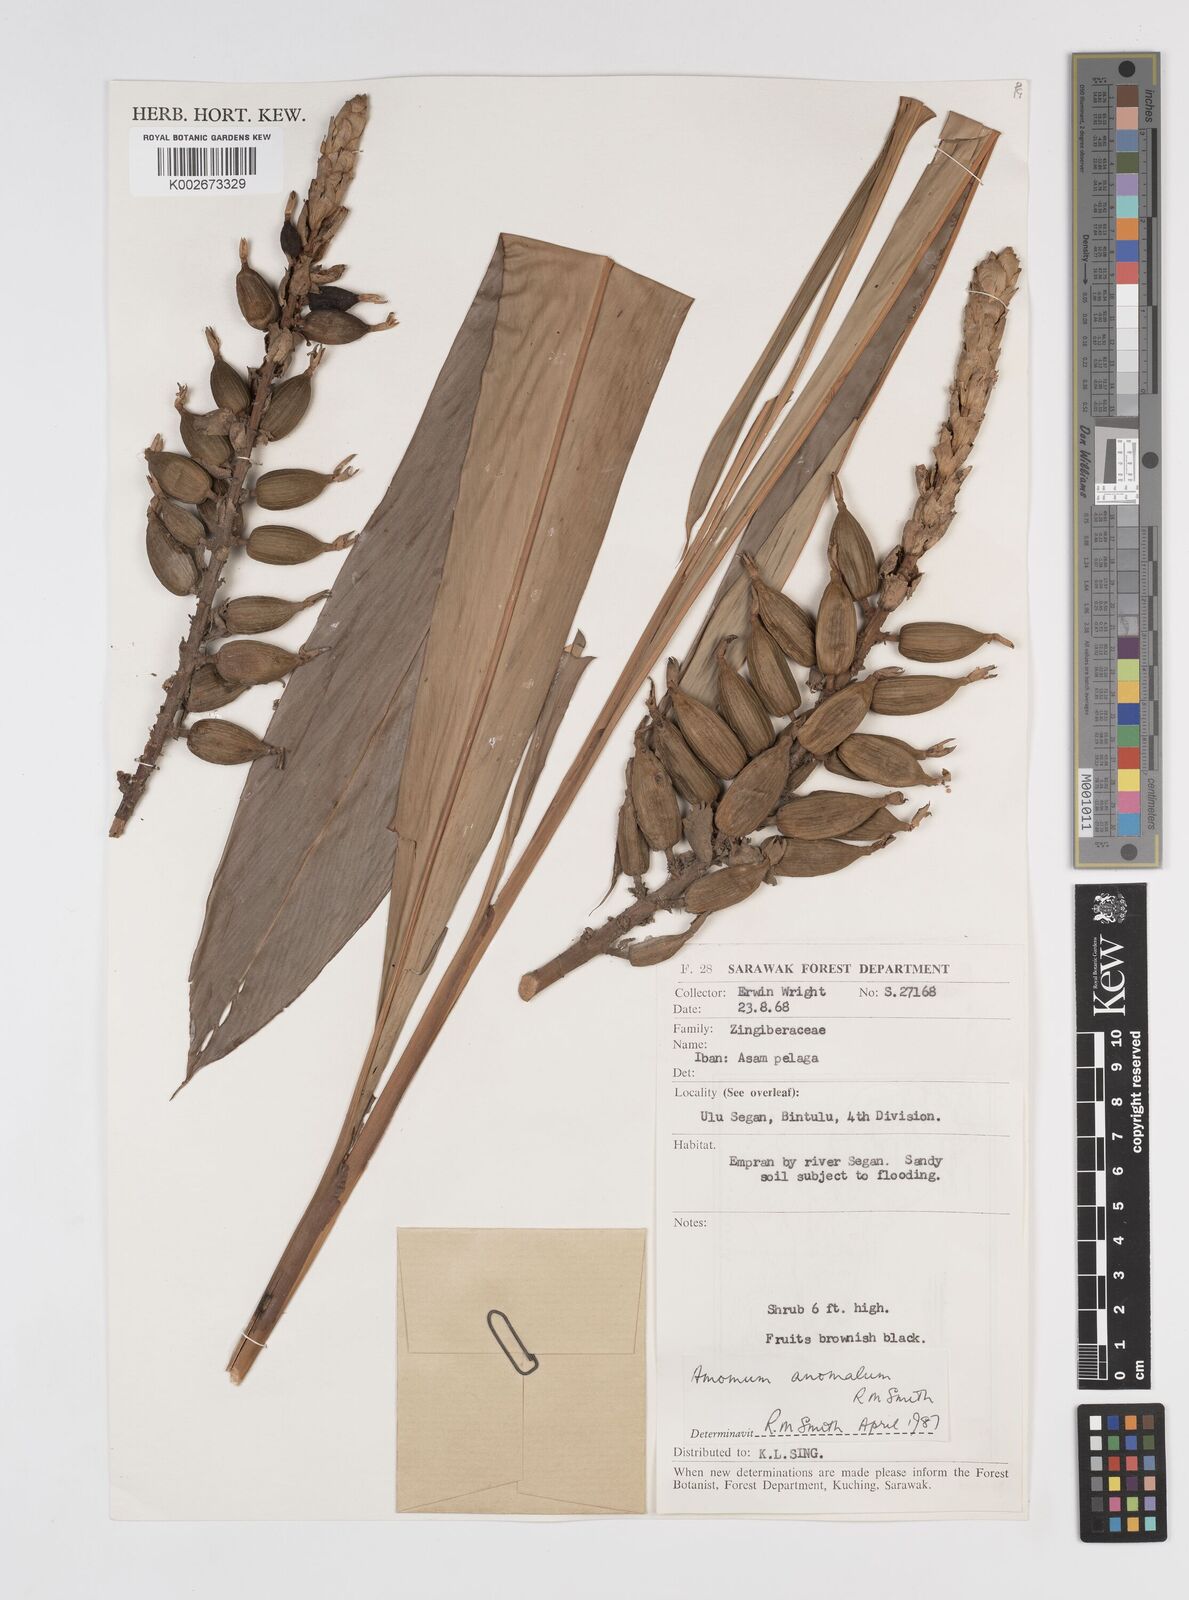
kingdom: Plantae
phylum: Tracheophyta
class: Liliopsida
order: Zingiberales
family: Zingiberaceae
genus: Sulettaria
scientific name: Sulettaria anomala
